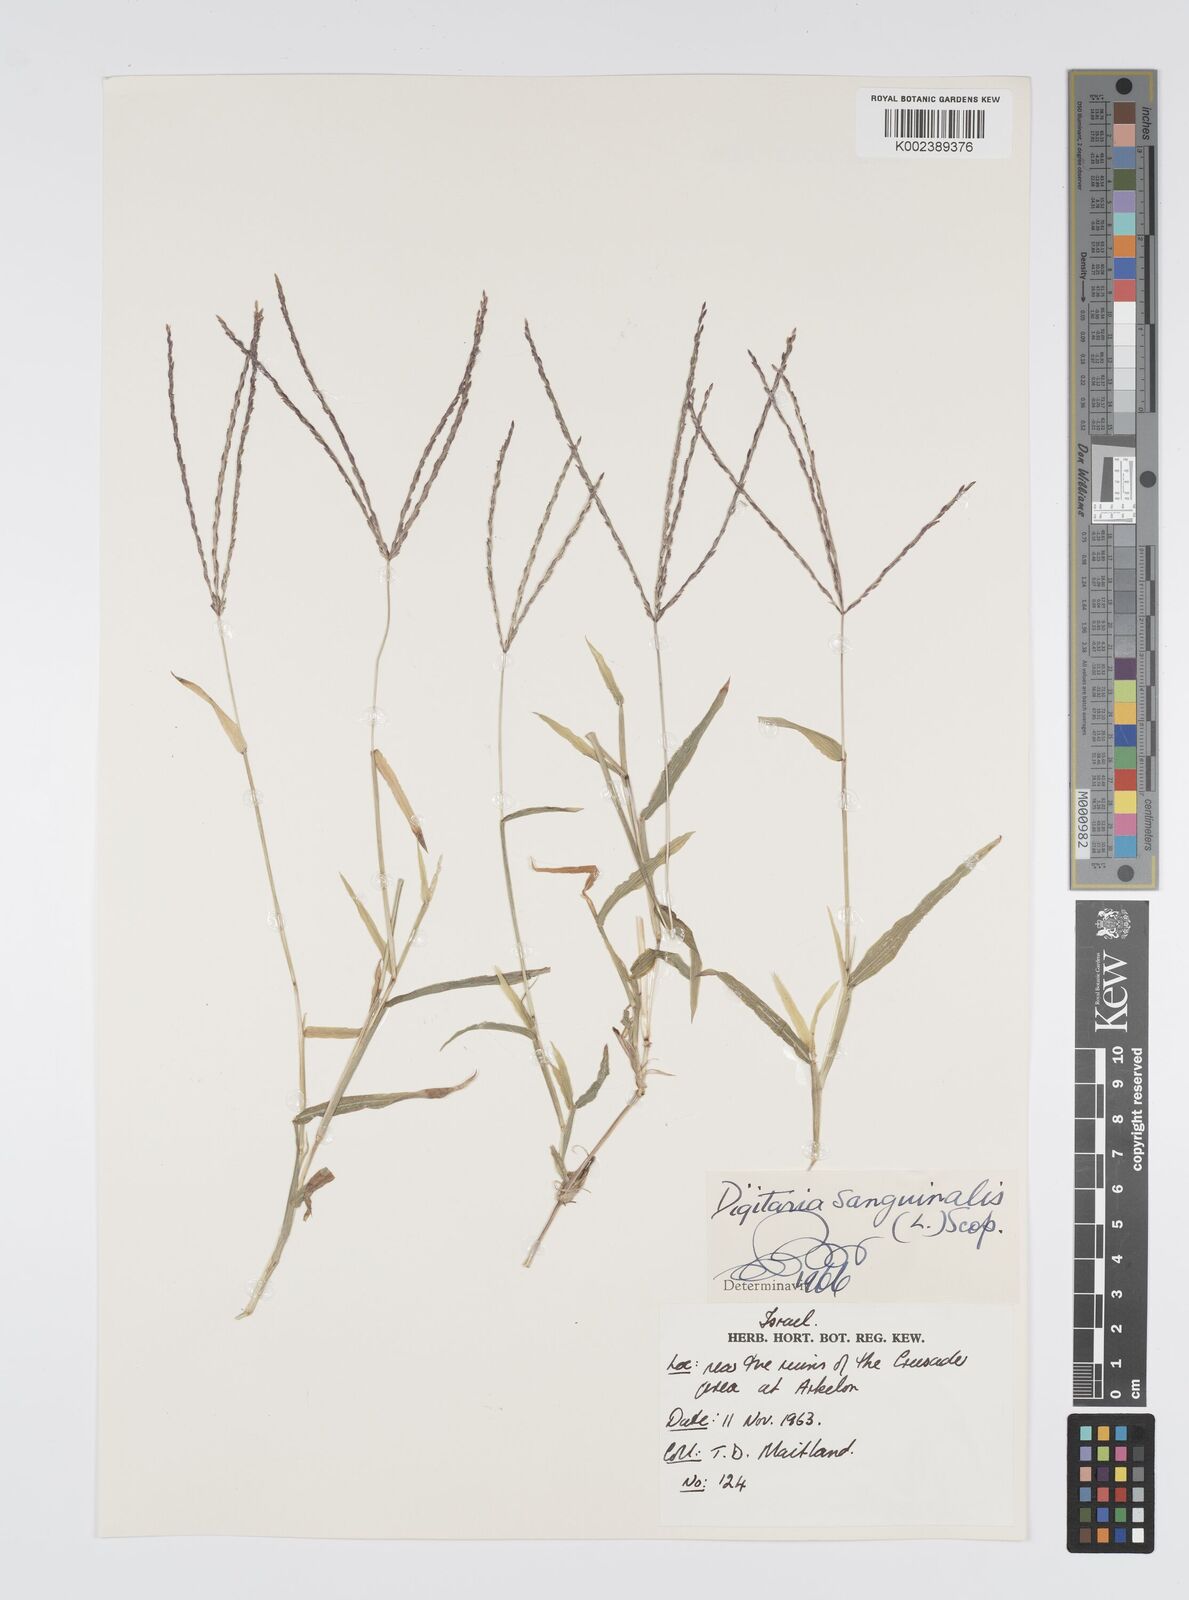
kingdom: Plantae
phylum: Tracheophyta
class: Liliopsida
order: Poales
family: Poaceae
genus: Digitaria
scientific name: Digitaria sanguinalis
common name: Hairy crabgrass
